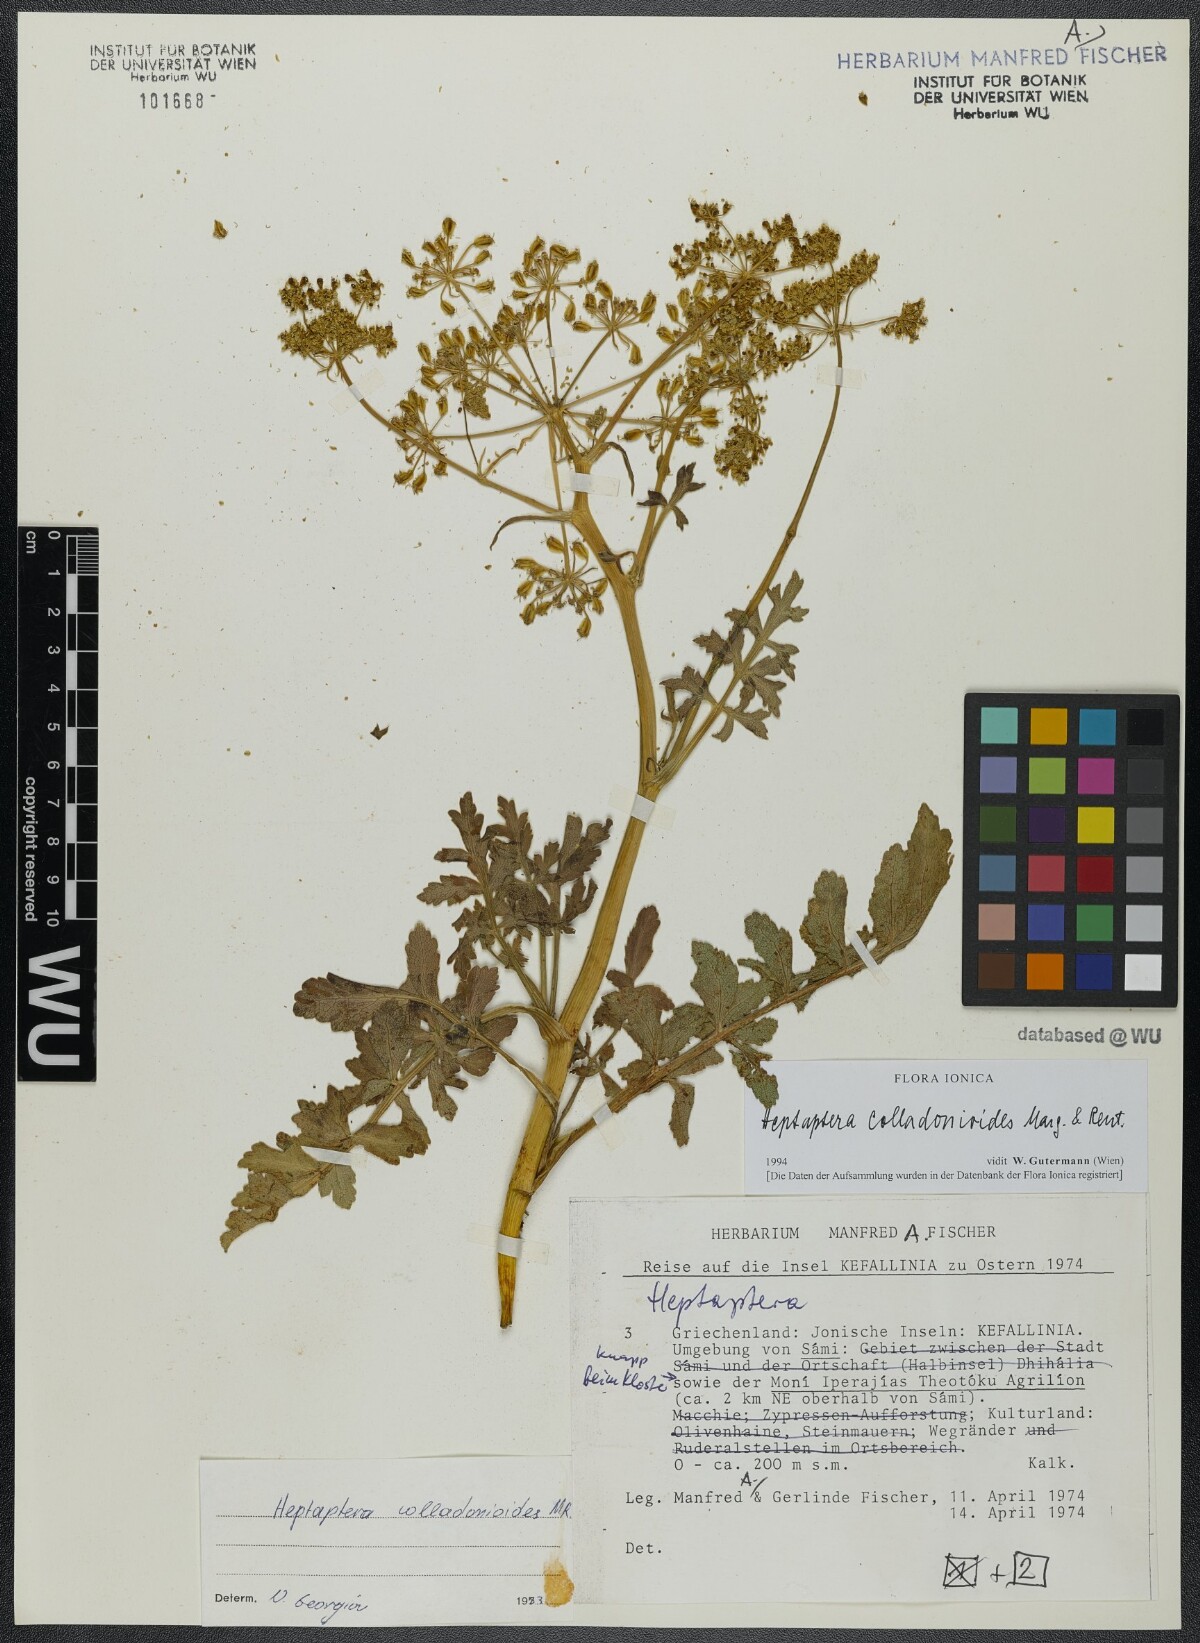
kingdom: Plantae
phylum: Tracheophyta
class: Magnoliopsida
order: Apiales
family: Apiaceae
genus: Heptaptera
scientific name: Heptaptera colladonioides
